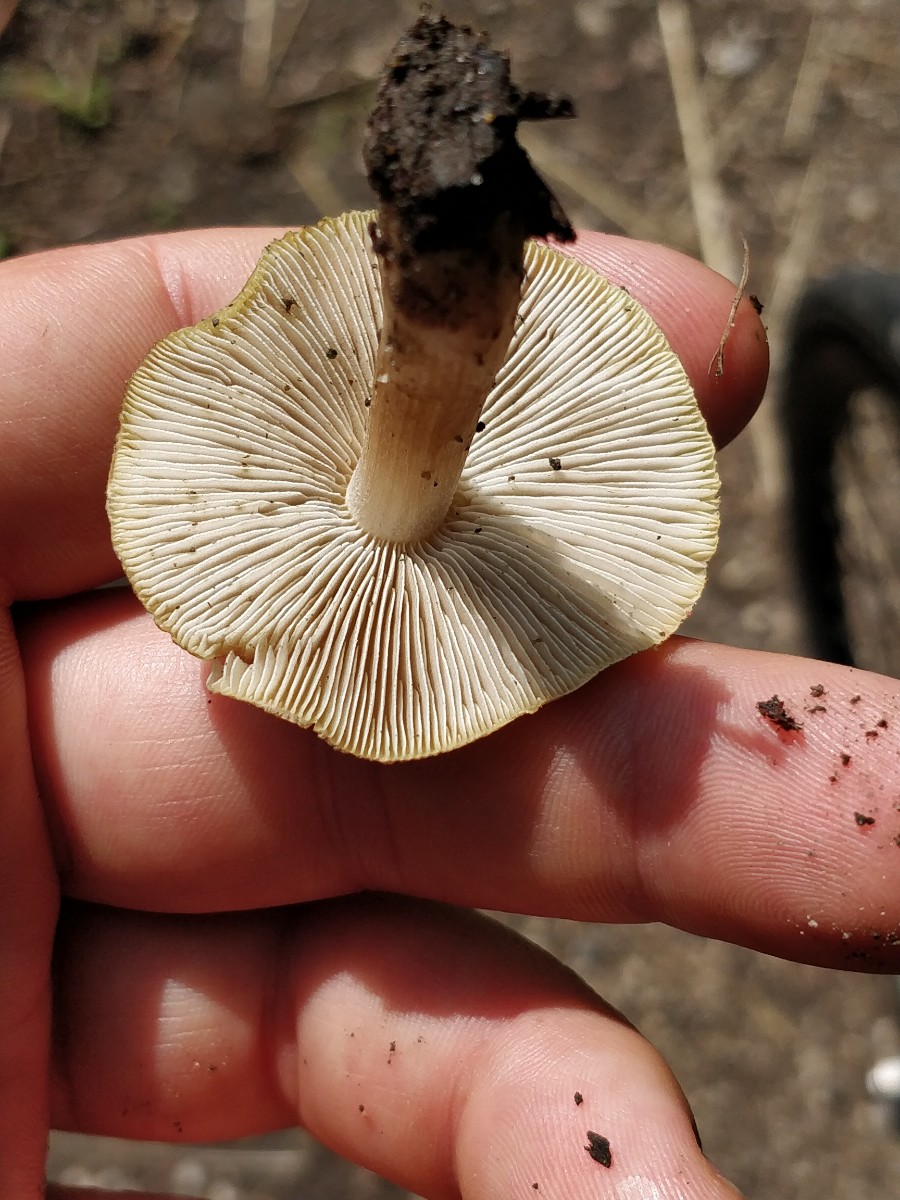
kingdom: Fungi
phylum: Basidiomycota
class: Agaricomycetes
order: Agaricales
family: Inocybaceae
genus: Inocybe
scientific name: Inocybe
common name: trævlhat
